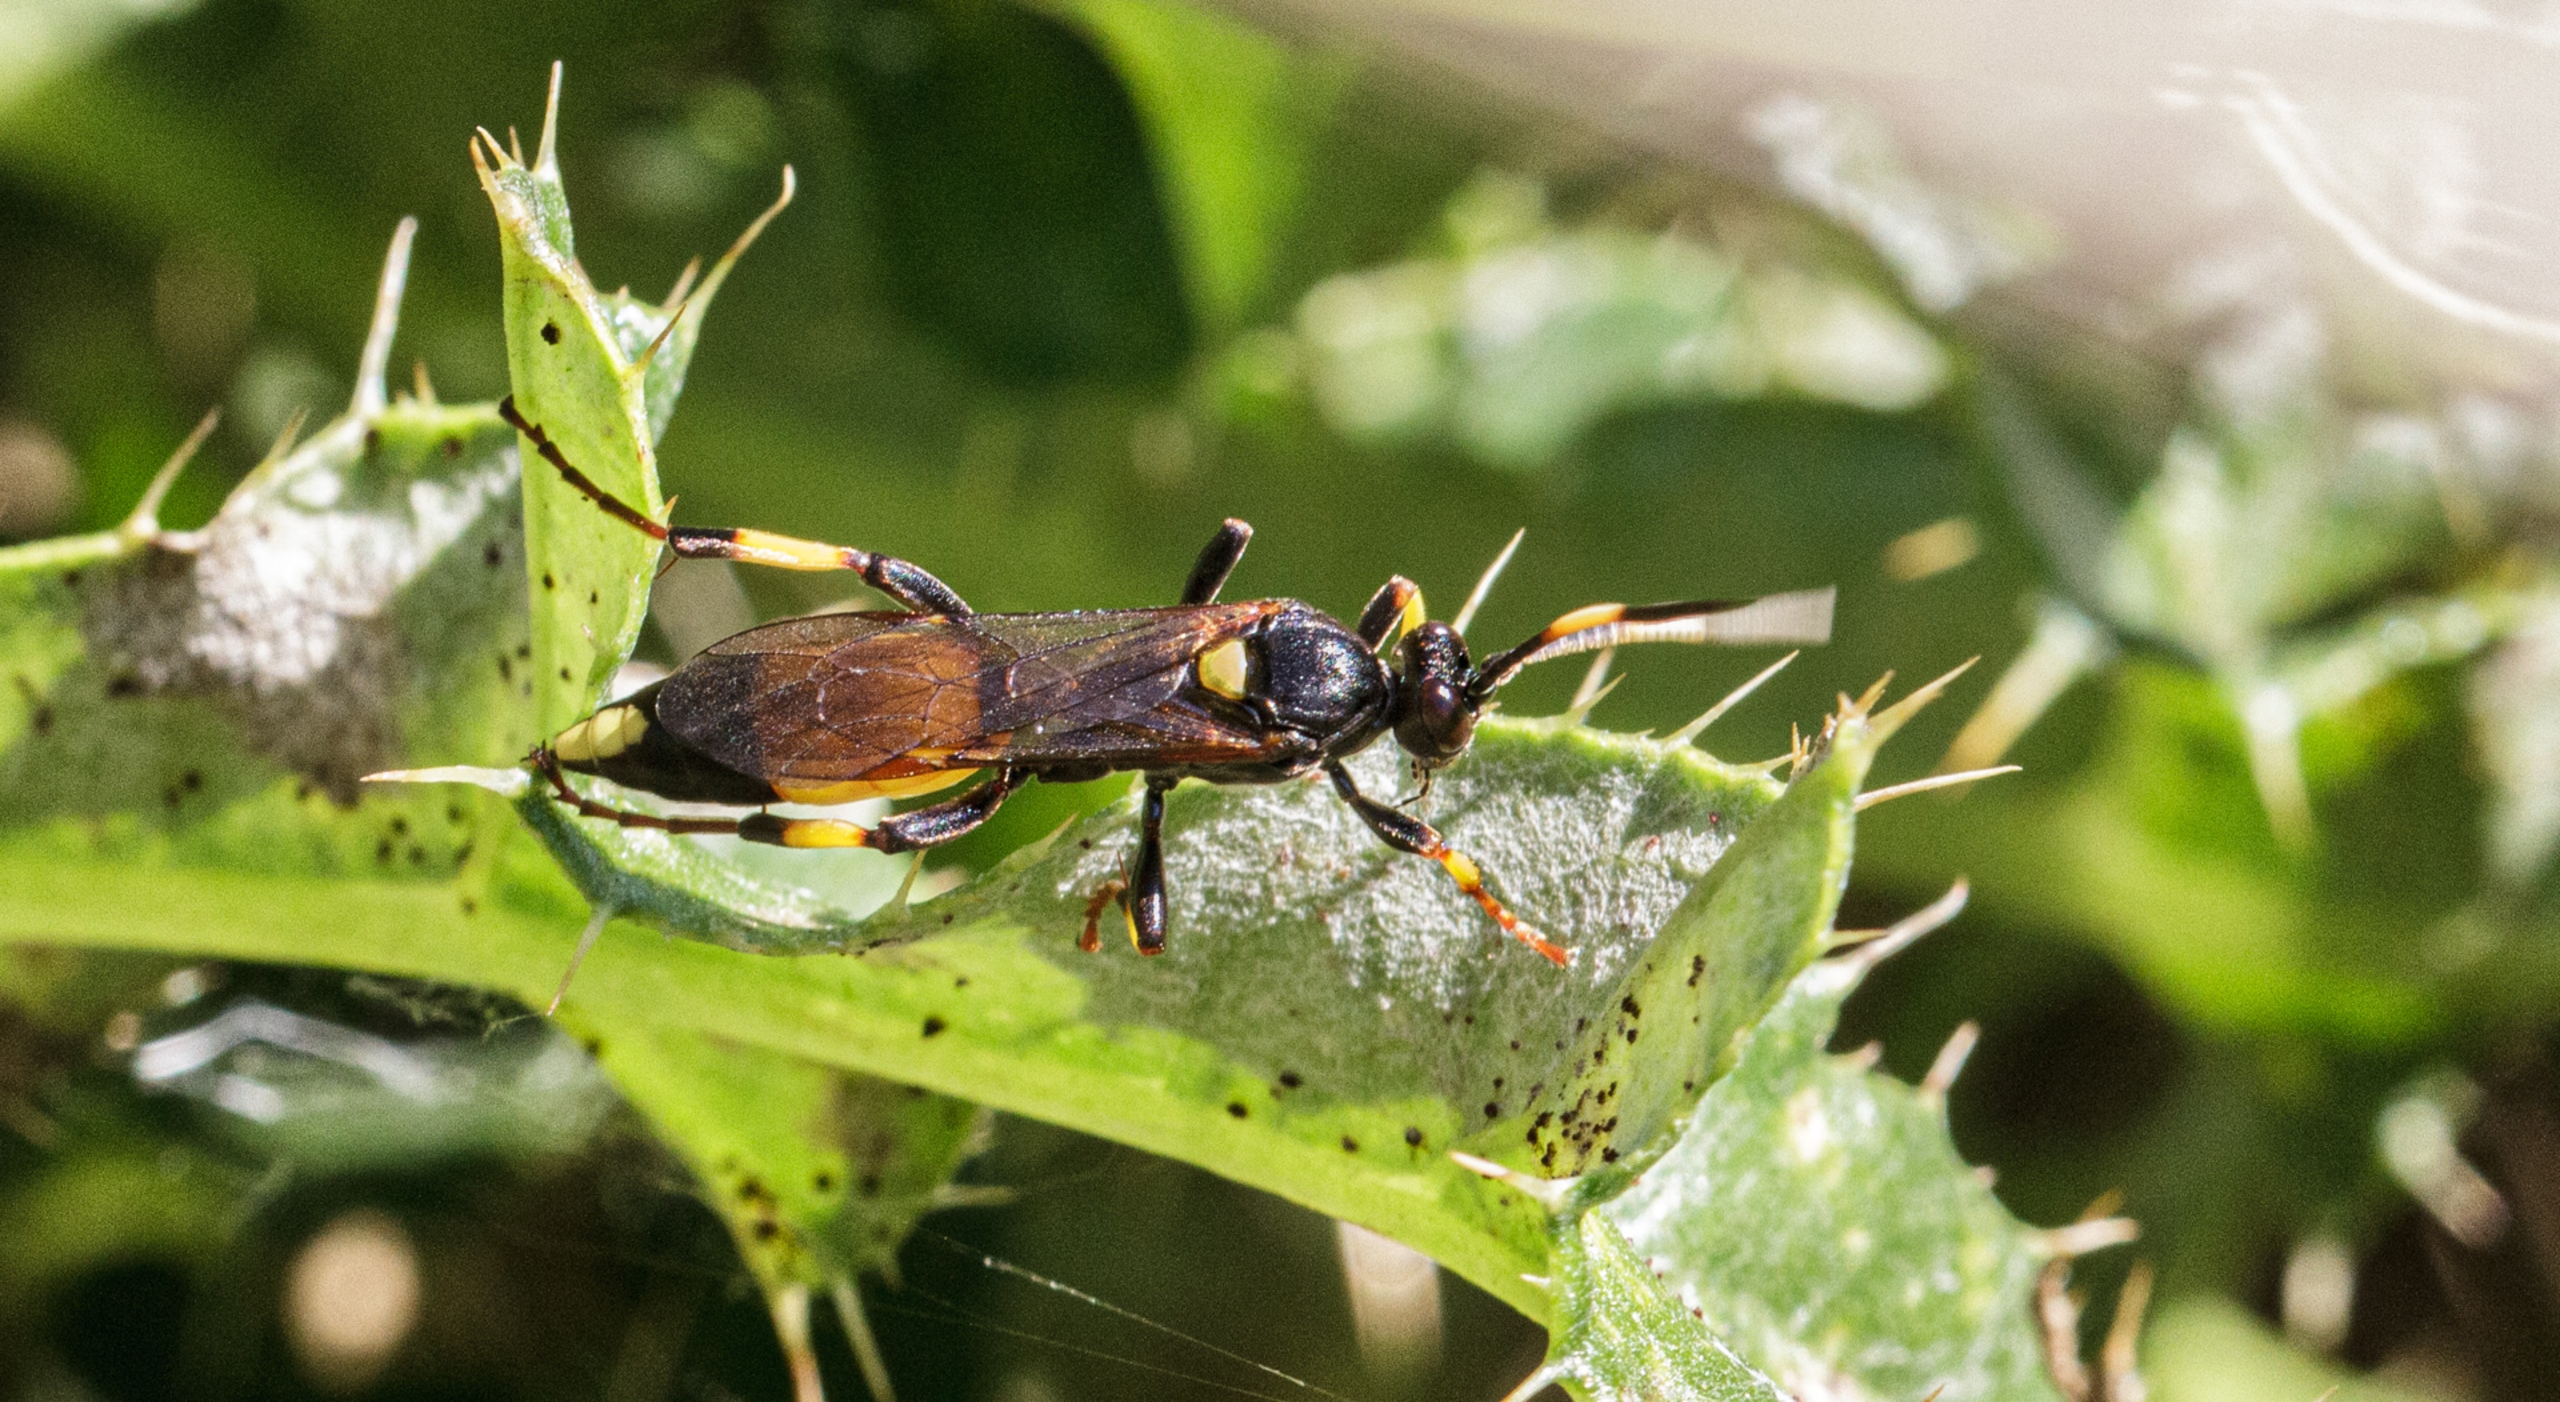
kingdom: Animalia
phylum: Arthropoda
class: Insecta
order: Hymenoptera
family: Ichneumonidae
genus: Ichneumon
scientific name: Ichneumon stramentor
